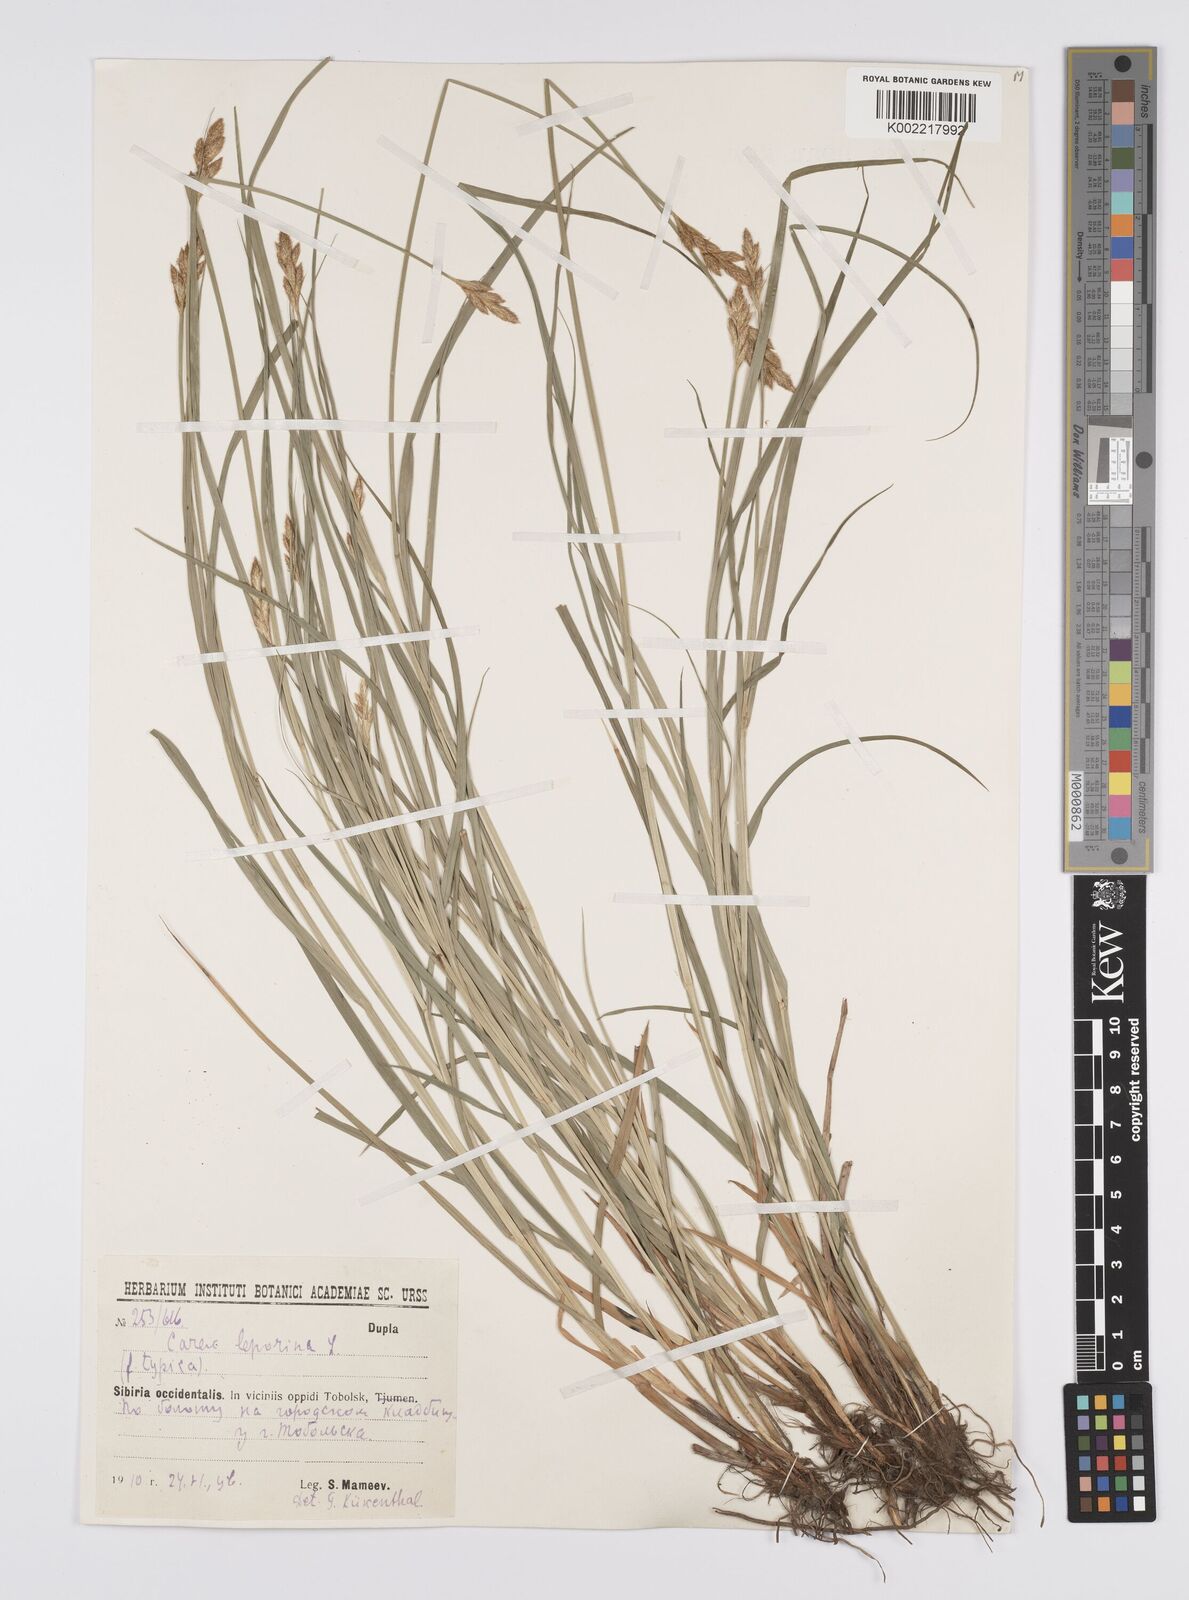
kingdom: Plantae
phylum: Tracheophyta
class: Liliopsida
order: Poales
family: Cyperaceae
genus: Carex
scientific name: Carex leporina
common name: Oval sedge
